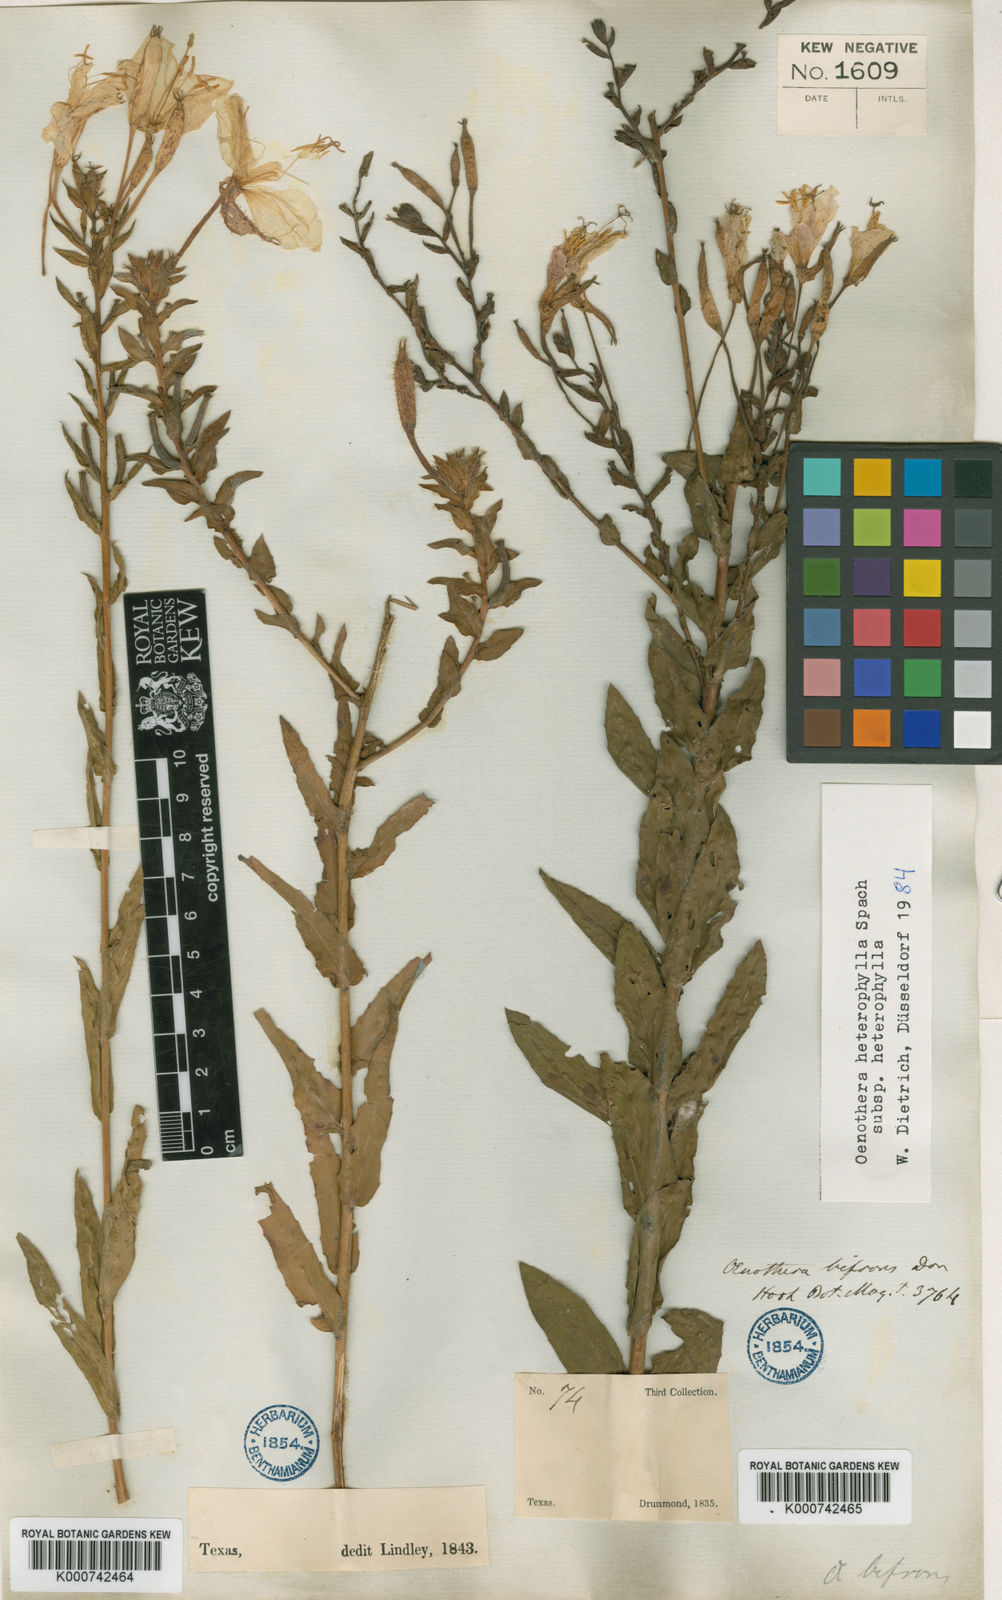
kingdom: Plantae
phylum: Tracheophyta
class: Magnoliopsida
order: Myrtales
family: Onagraceae
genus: Oenothera
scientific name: Oenothera heterophylla
